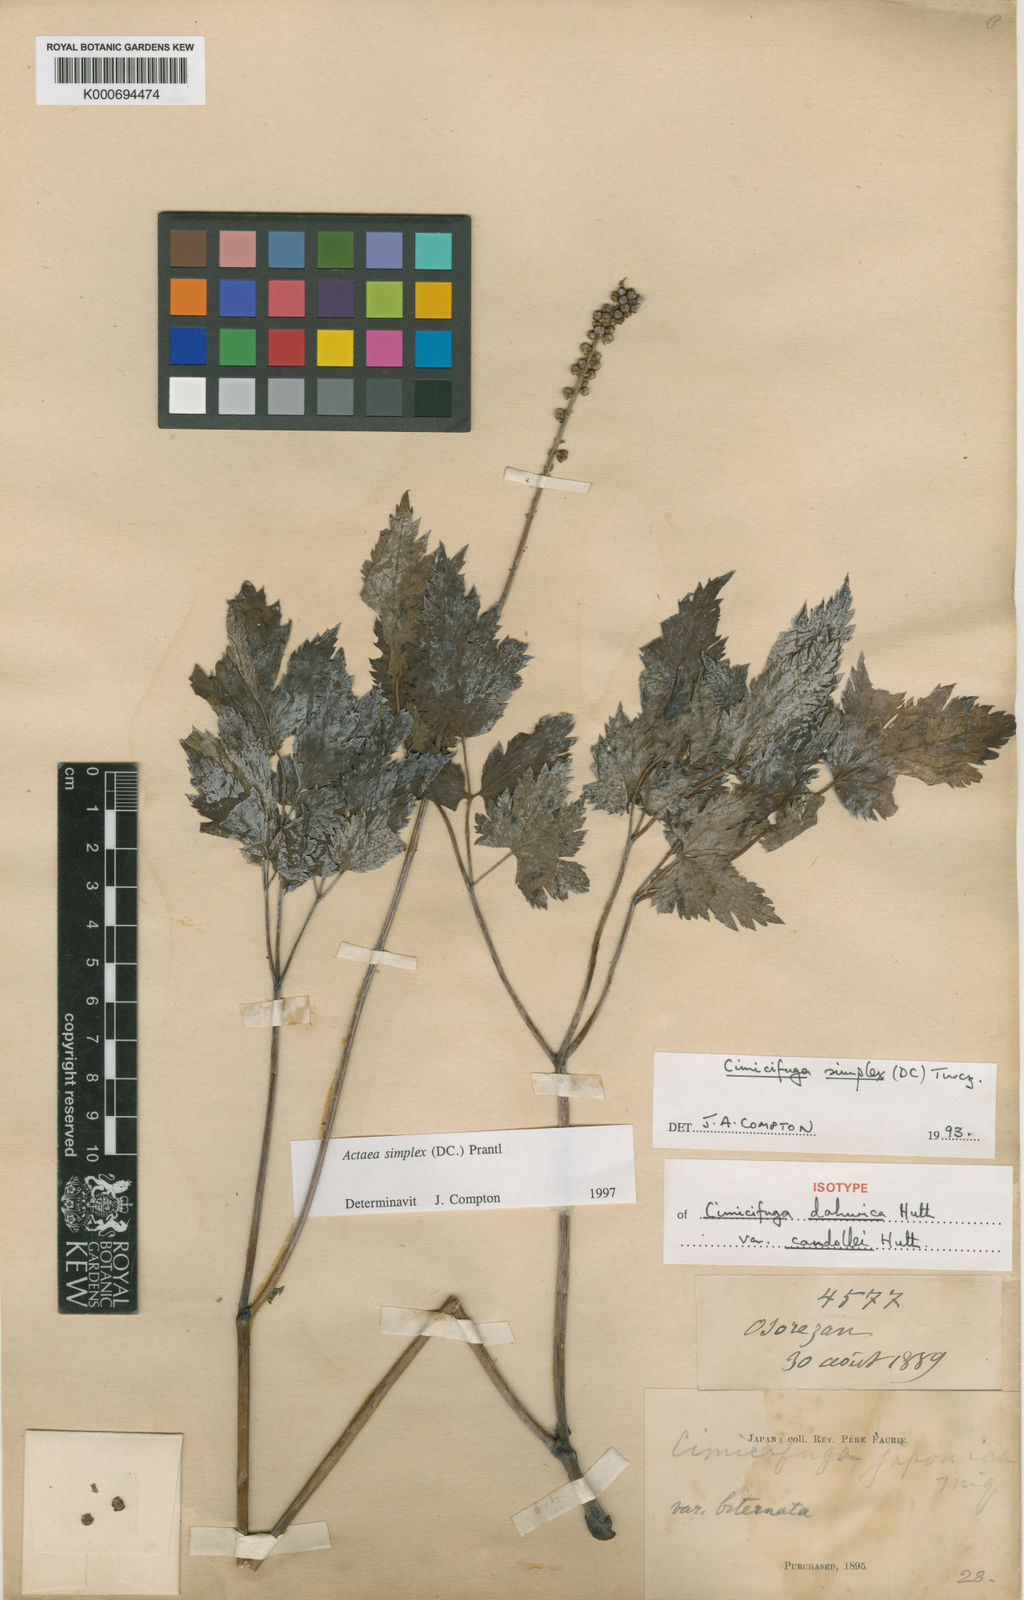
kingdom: Plantae
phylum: Tracheophyta
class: Magnoliopsida
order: Ranunculales
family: Ranunculaceae
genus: Actaea
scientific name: Actaea simplex
